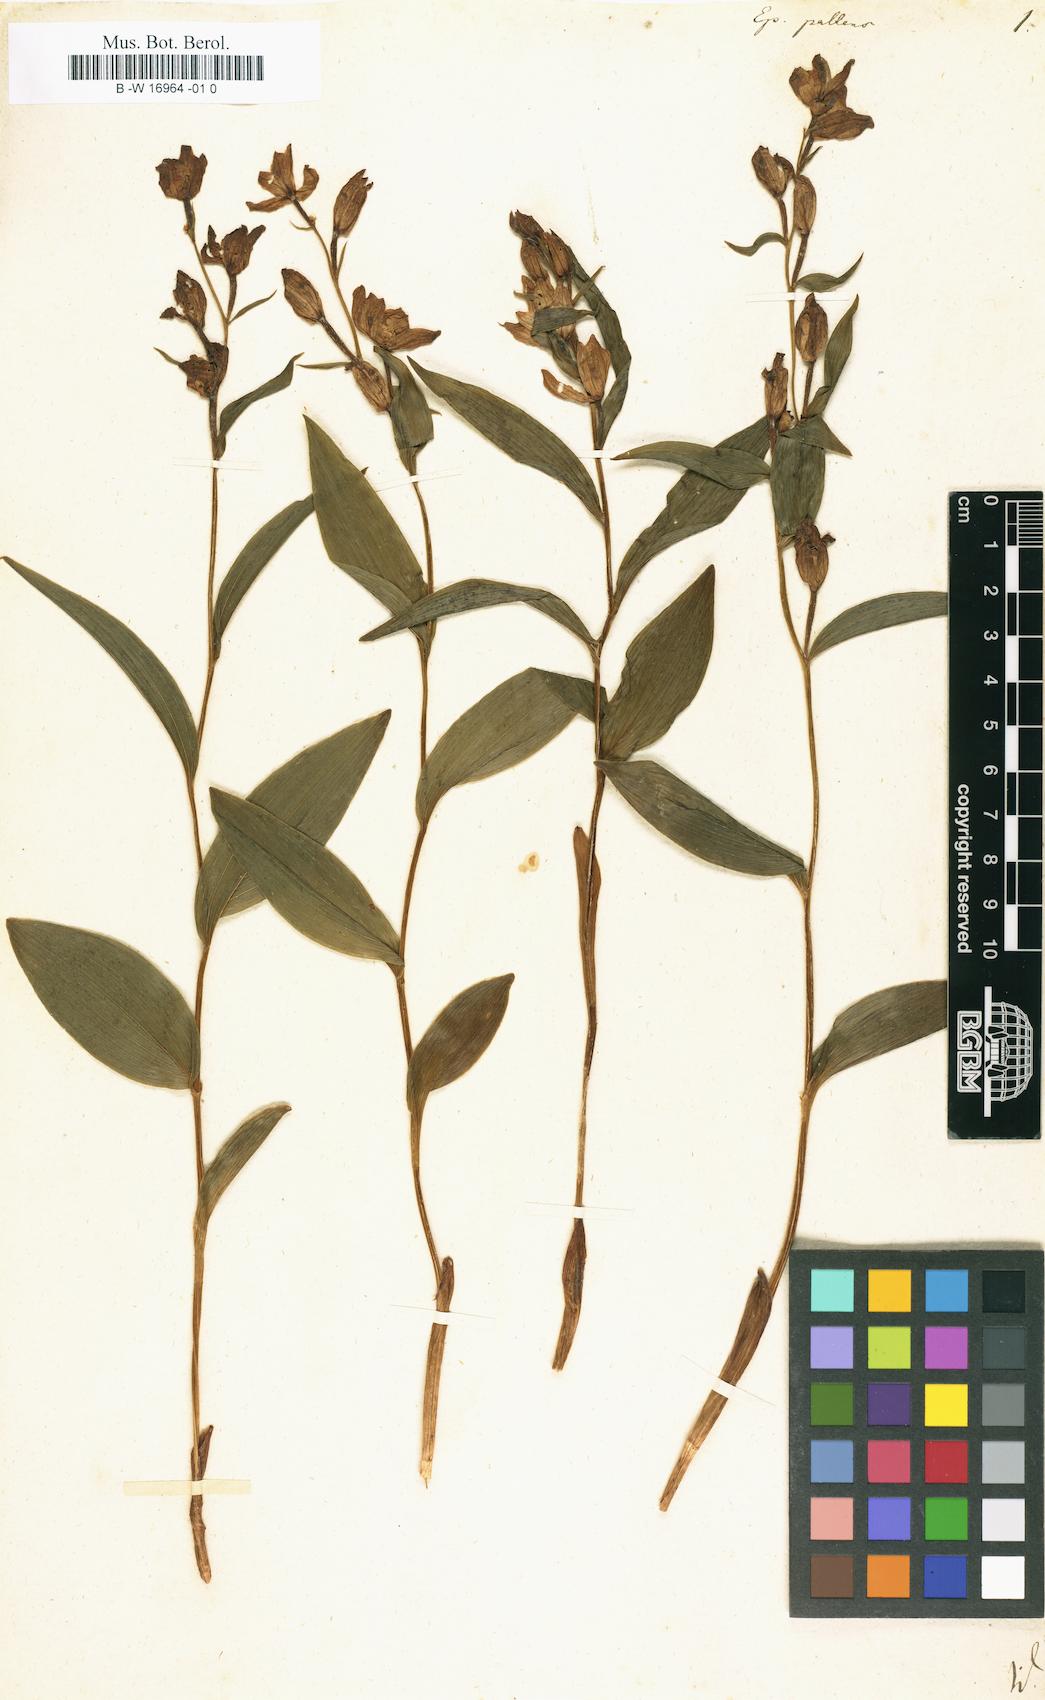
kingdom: Plantae
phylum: Tracheophyta
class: Liliopsida
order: Asparagales
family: Orchidaceae
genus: Cephalanthera
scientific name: Cephalanthera longifolia
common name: Narrow-leaved helleborine
